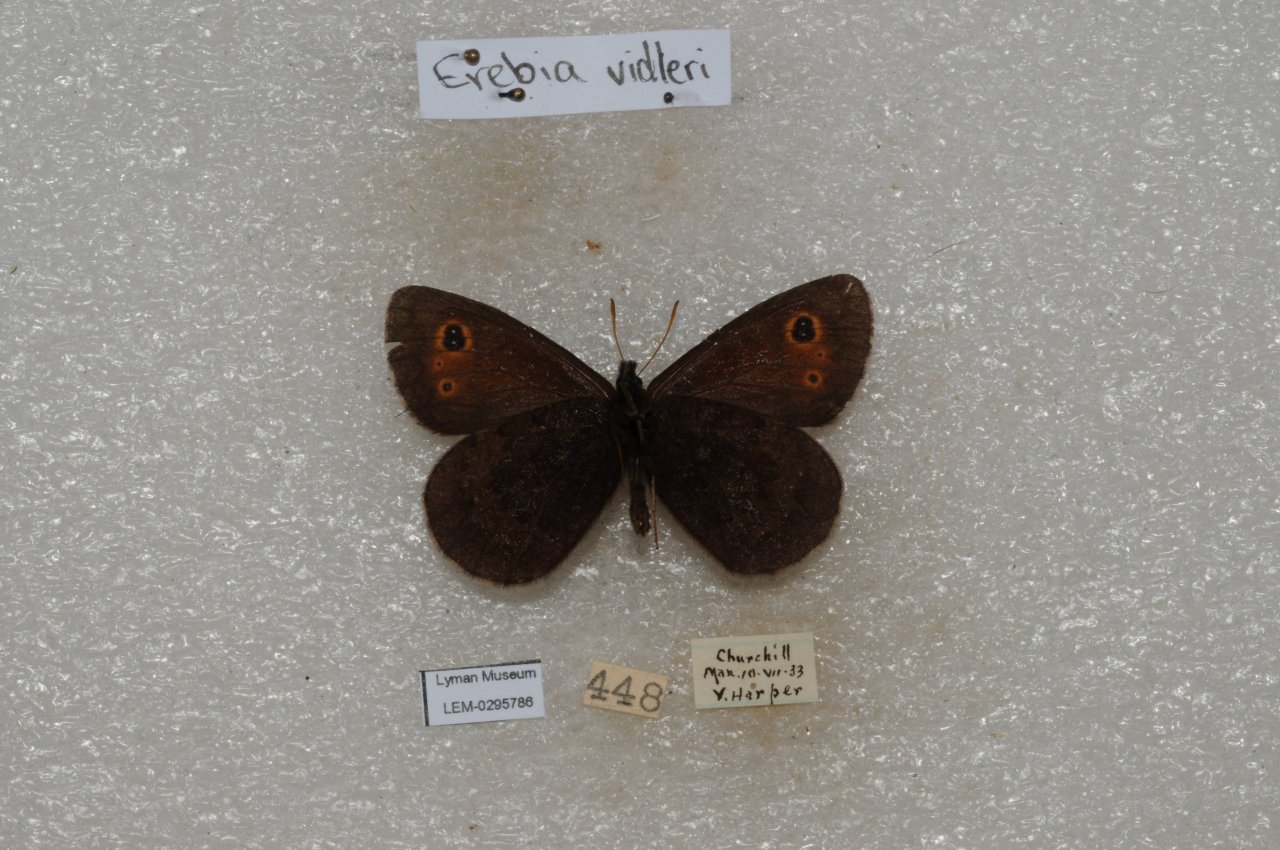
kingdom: Animalia
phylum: Arthropoda
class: Insecta
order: Lepidoptera
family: Nymphalidae
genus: Erebia
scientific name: Erebia disa
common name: Taiga Alpine
